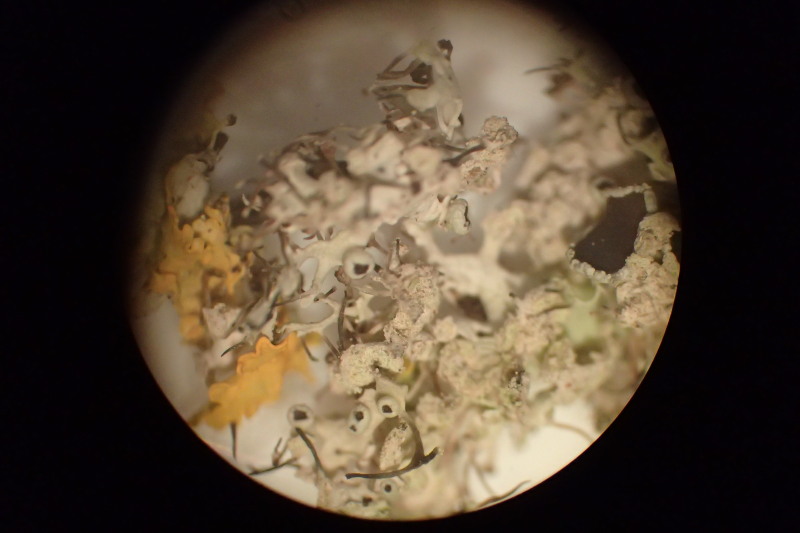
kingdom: Fungi
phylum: Ascomycota
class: Lecanoromycetes
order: Caliciales
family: Physciaceae
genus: Physcia
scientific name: Physcia tenella
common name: spæd rosetlav
